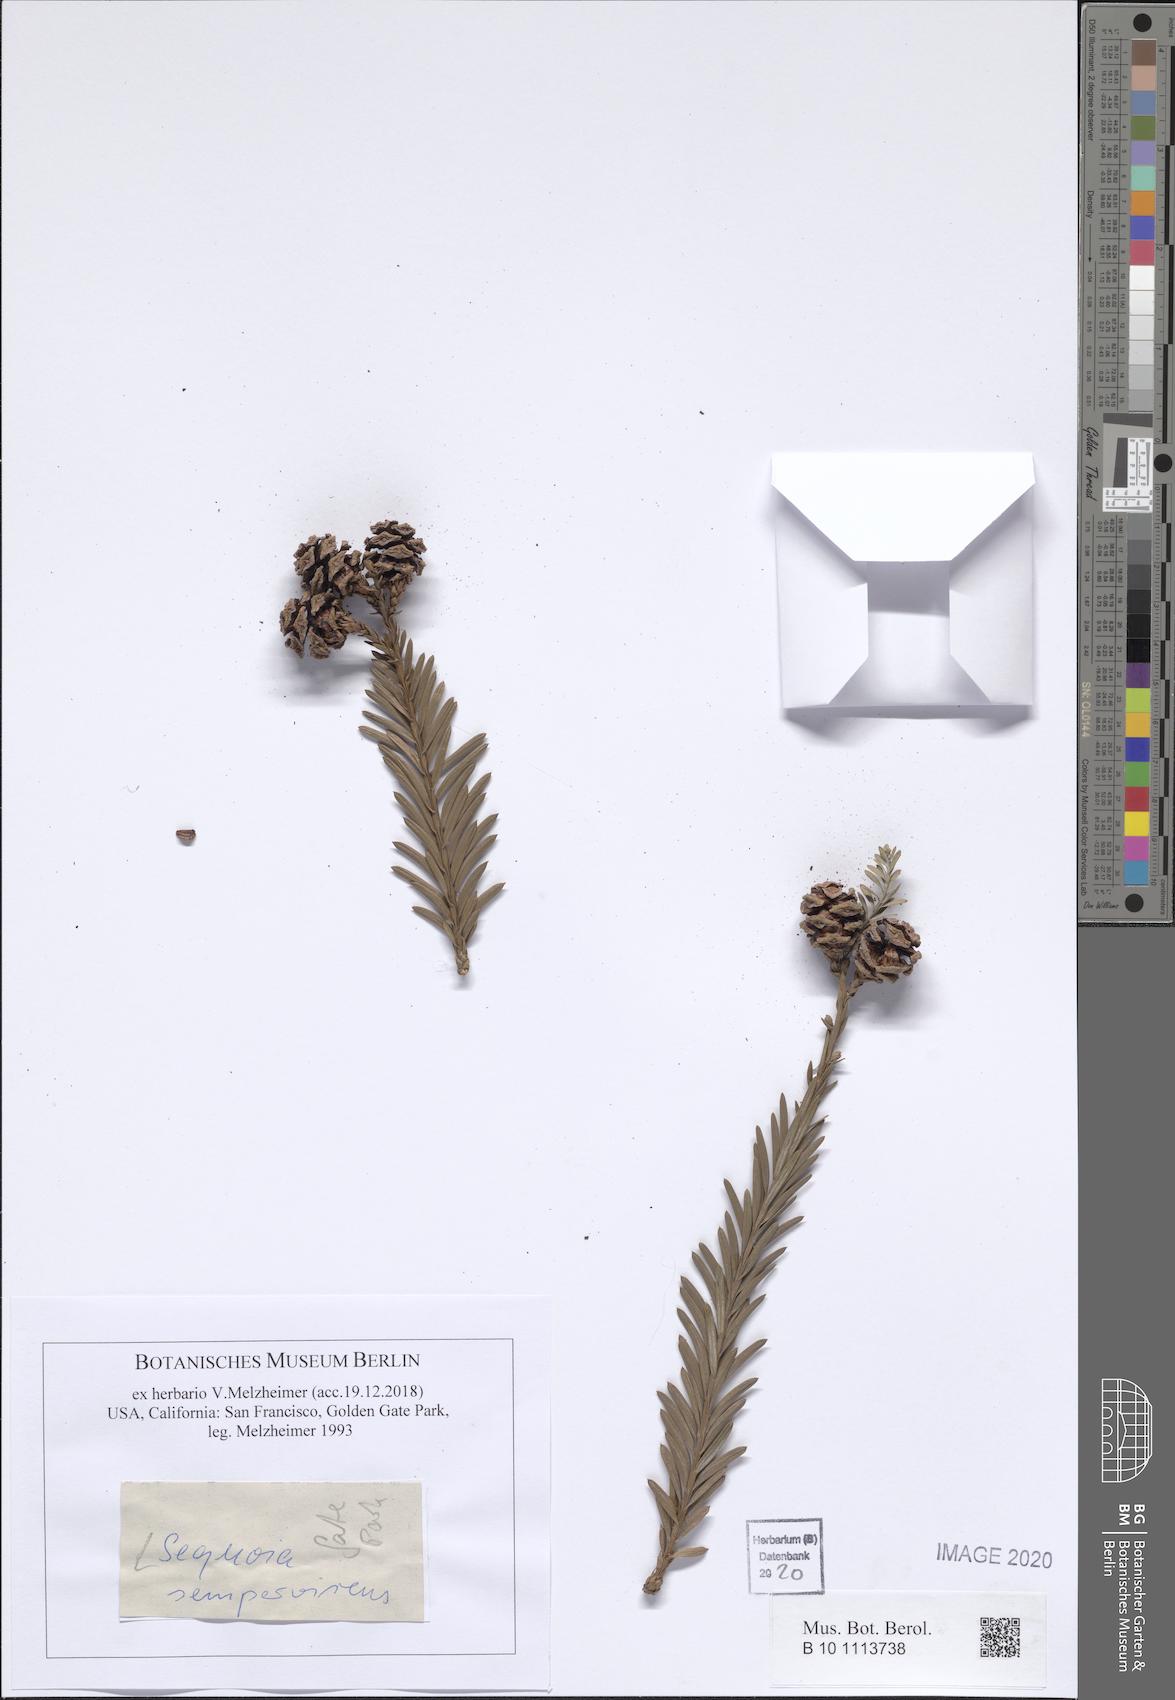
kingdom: Plantae
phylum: Tracheophyta
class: Pinopsida
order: Pinales
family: Cupressaceae
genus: Sequoia
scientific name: Sequoia sempervirens
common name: Coast redwood
